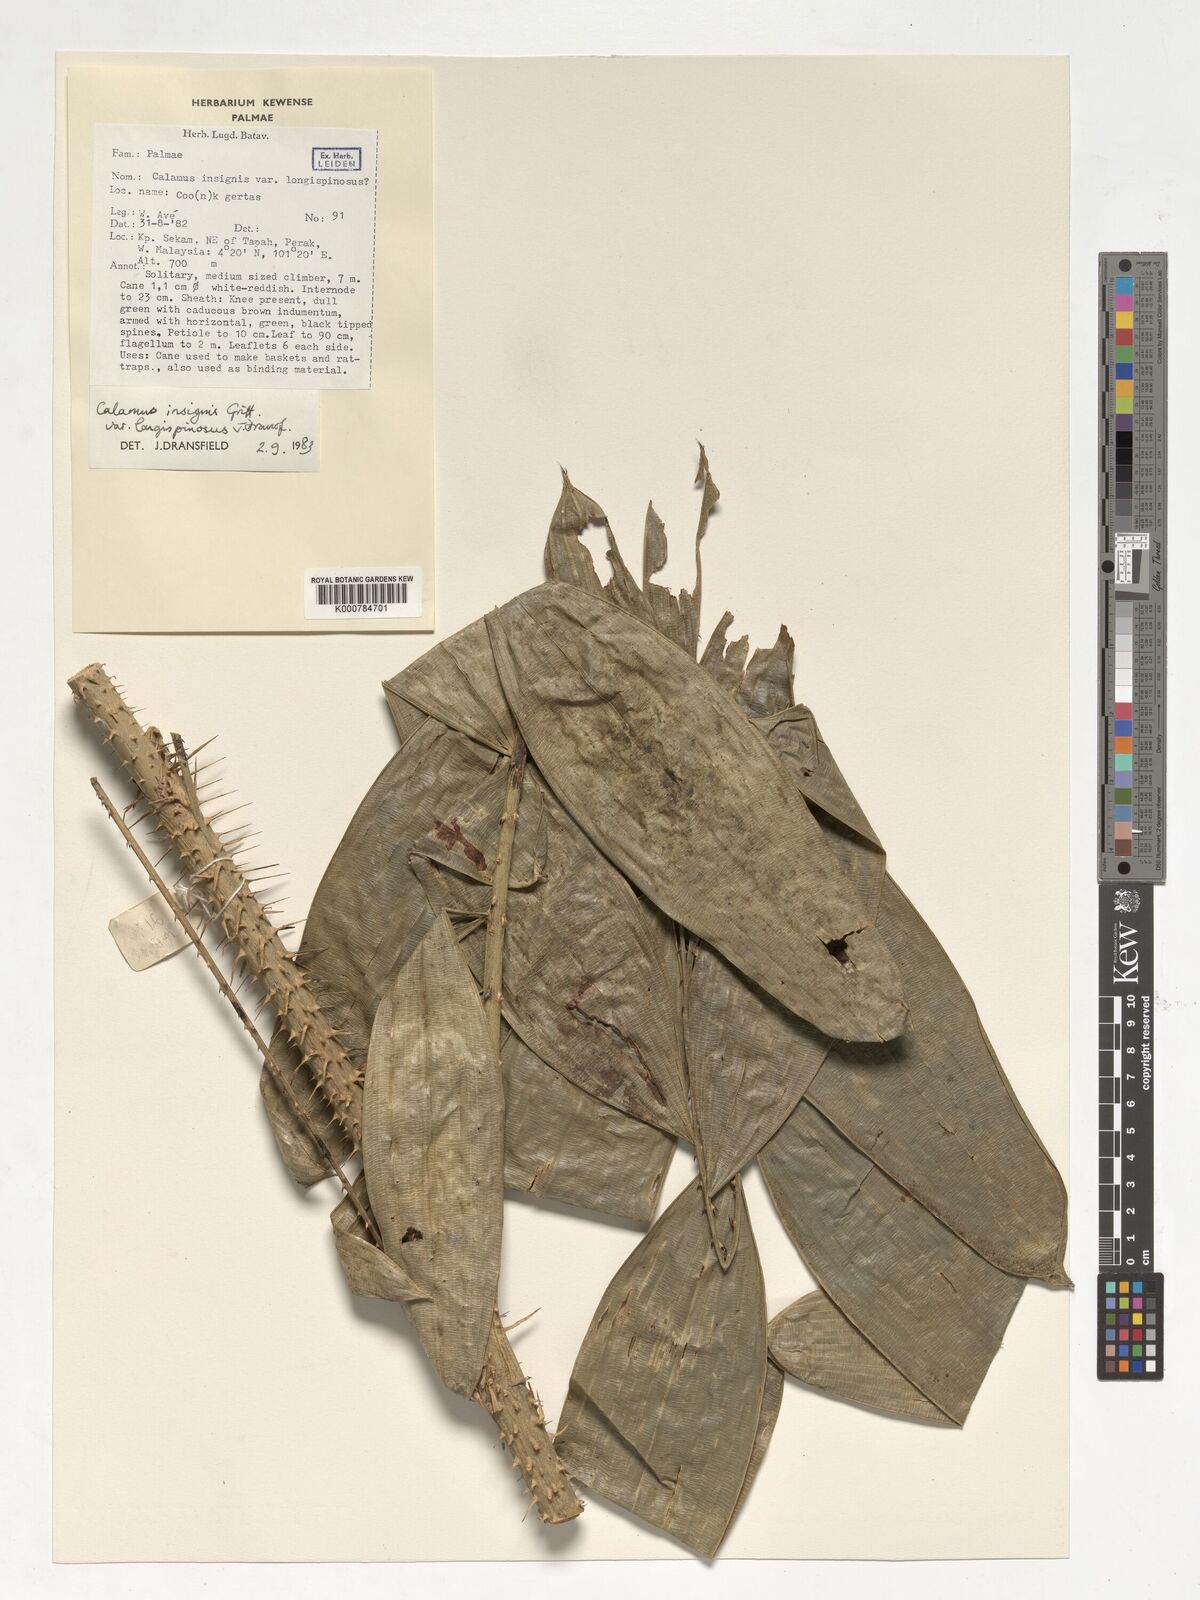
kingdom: Plantae
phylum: Tracheophyta
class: Liliopsida
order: Arecales
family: Arecaceae
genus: Calamus
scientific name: Calamus longiusculus
